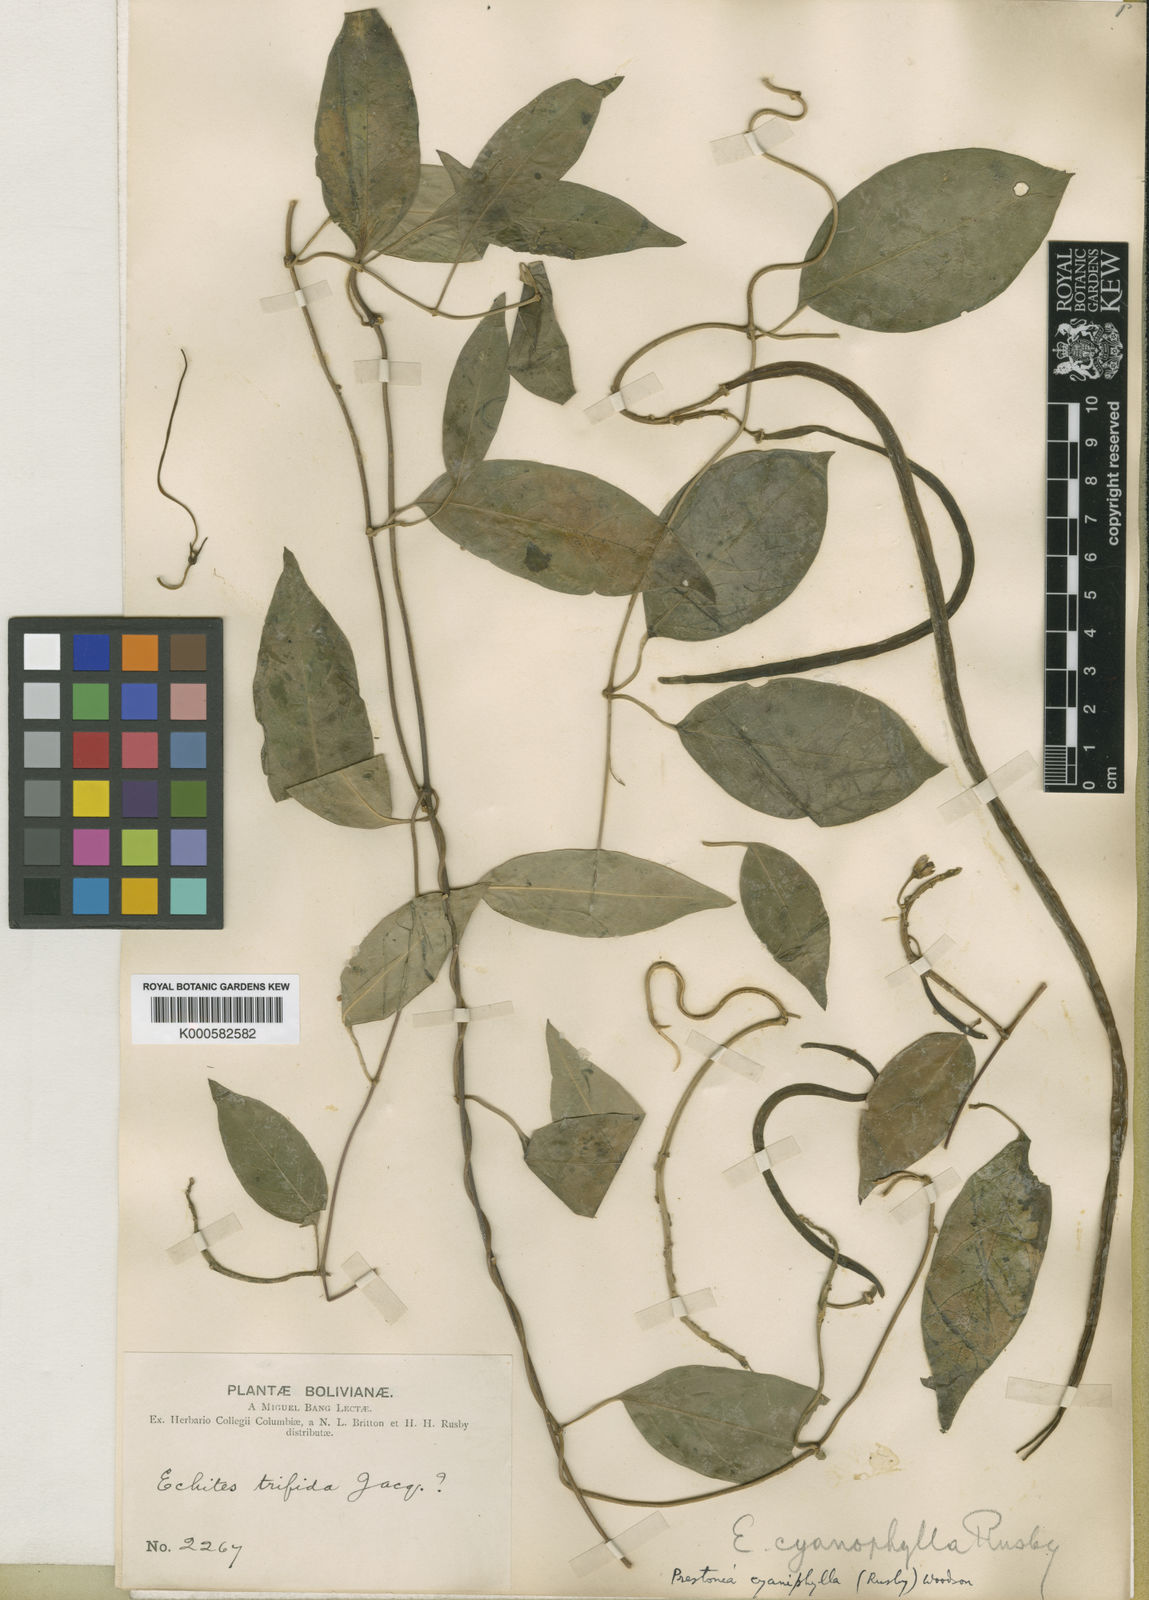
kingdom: Plantae
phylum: Tracheophyta
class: Magnoliopsida
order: Gentianales
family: Apocynaceae
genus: Prestonia
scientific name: Prestonia cyaniphylla
